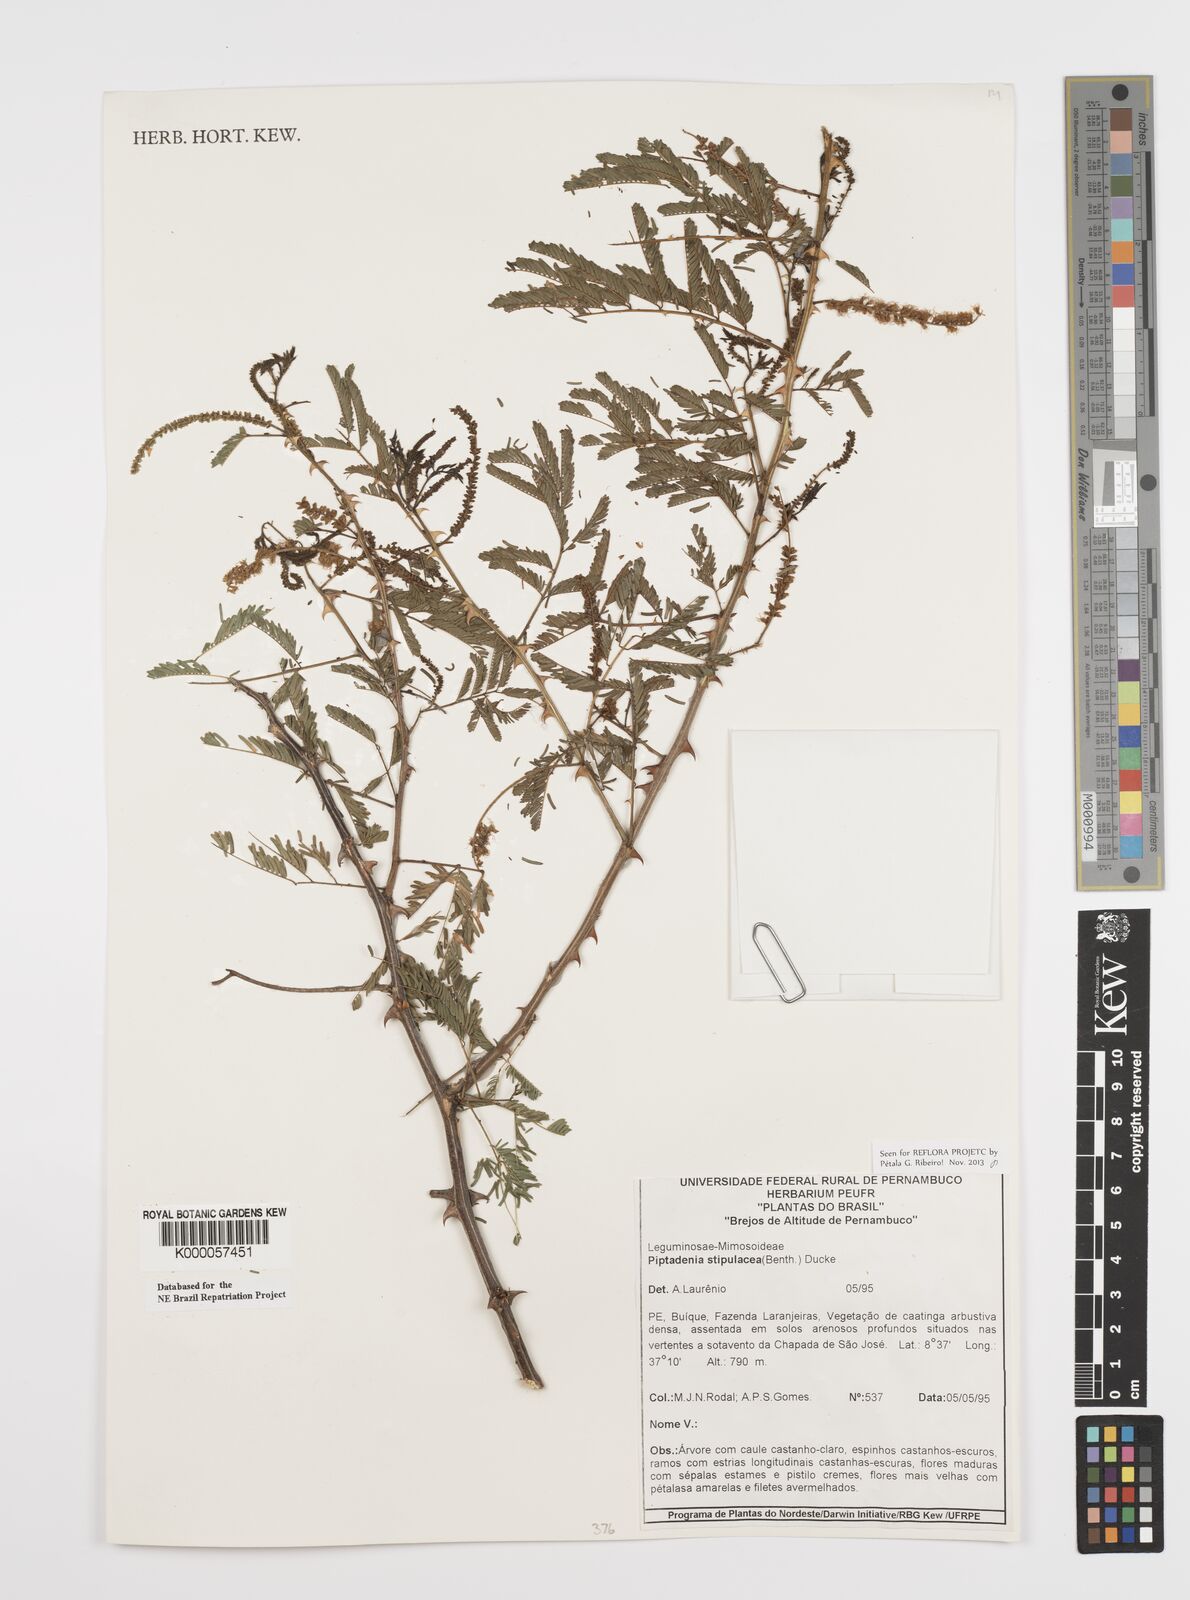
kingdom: Plantae
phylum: Tracheophyta
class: Magnoliopsida
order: Fabales
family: Fabaceae
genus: Piptadenia
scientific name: Piptadenia retusa
